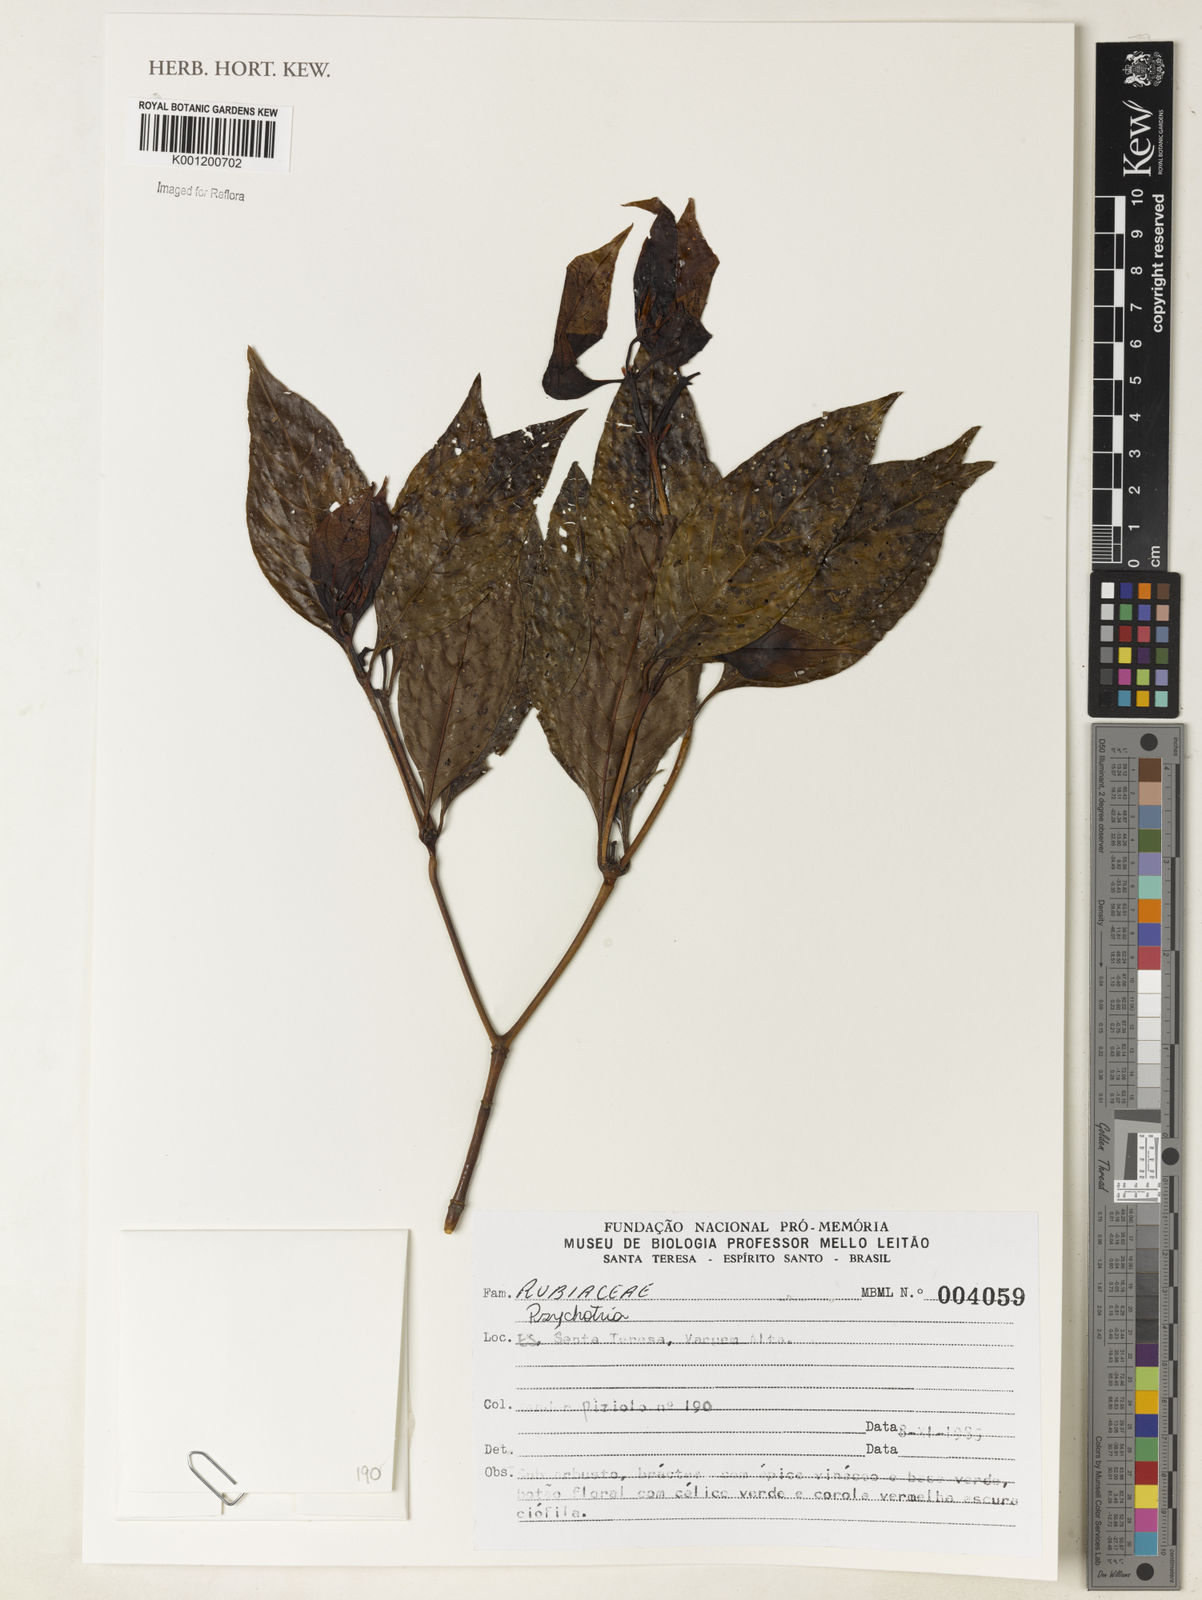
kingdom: Plantae
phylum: Tracheophyta
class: Magnoliopsida
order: Gentianales
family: Rubiaceae
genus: Psychotria
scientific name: Psychotria
